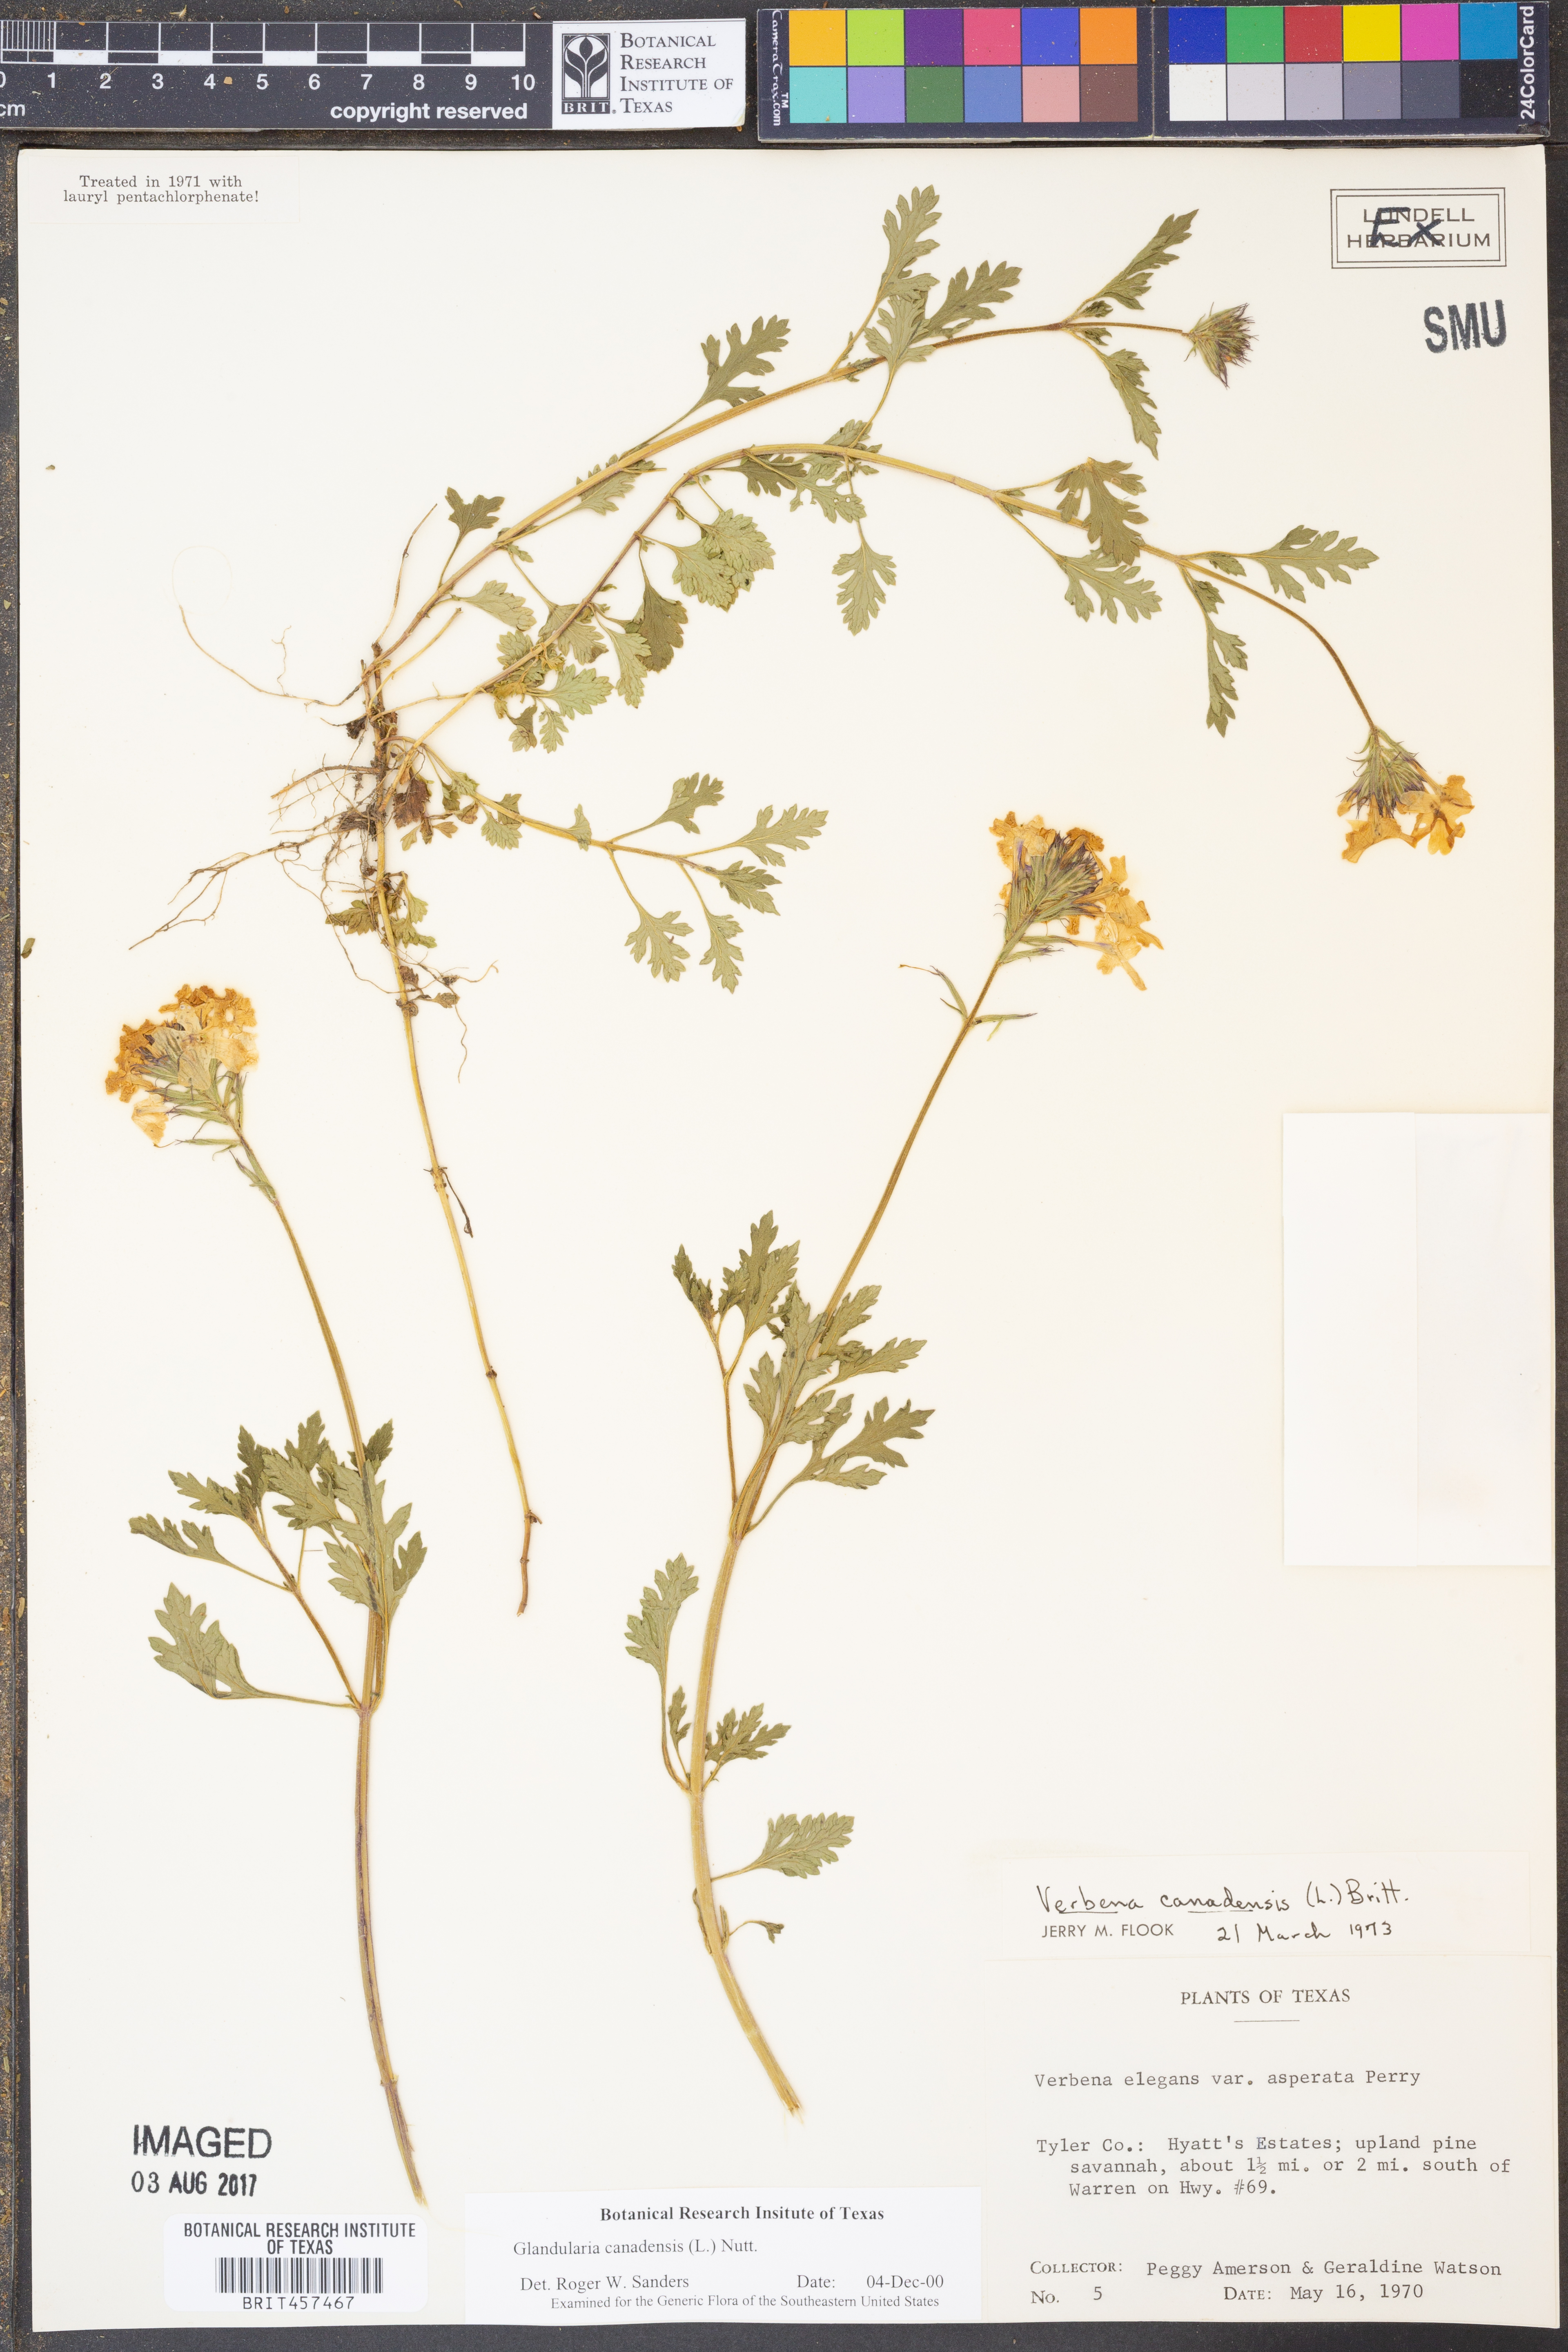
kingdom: Plantae
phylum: Tracheophyta
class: Magnoliopsida
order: Lamiales
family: Verbenaceae
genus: Verbena
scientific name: Verbena canadensis
